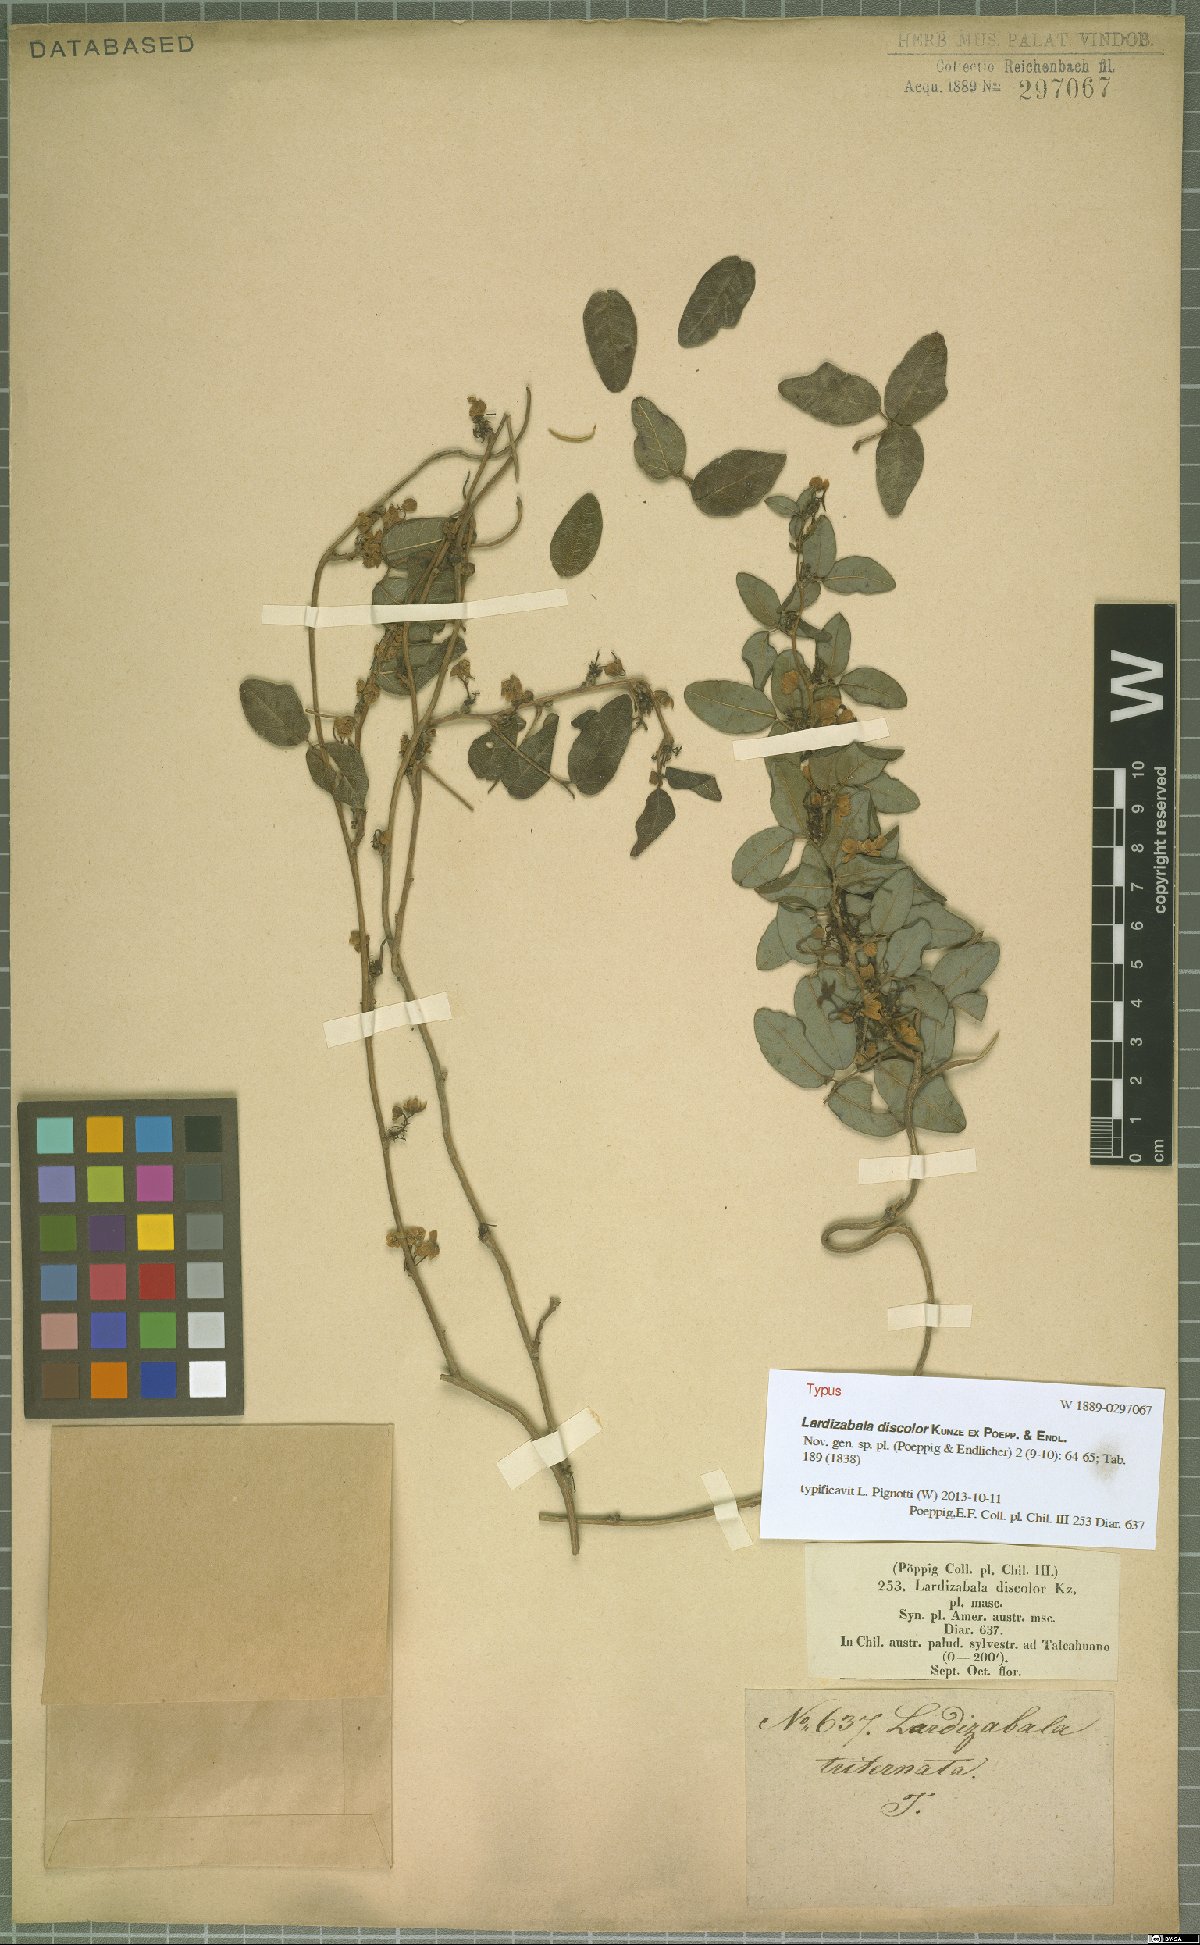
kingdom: Plantae
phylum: Tracheophyta
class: Magnoliopsida
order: Ranunculales
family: Lardizabalaceae
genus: Boquila
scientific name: Boquila trifoliolata
